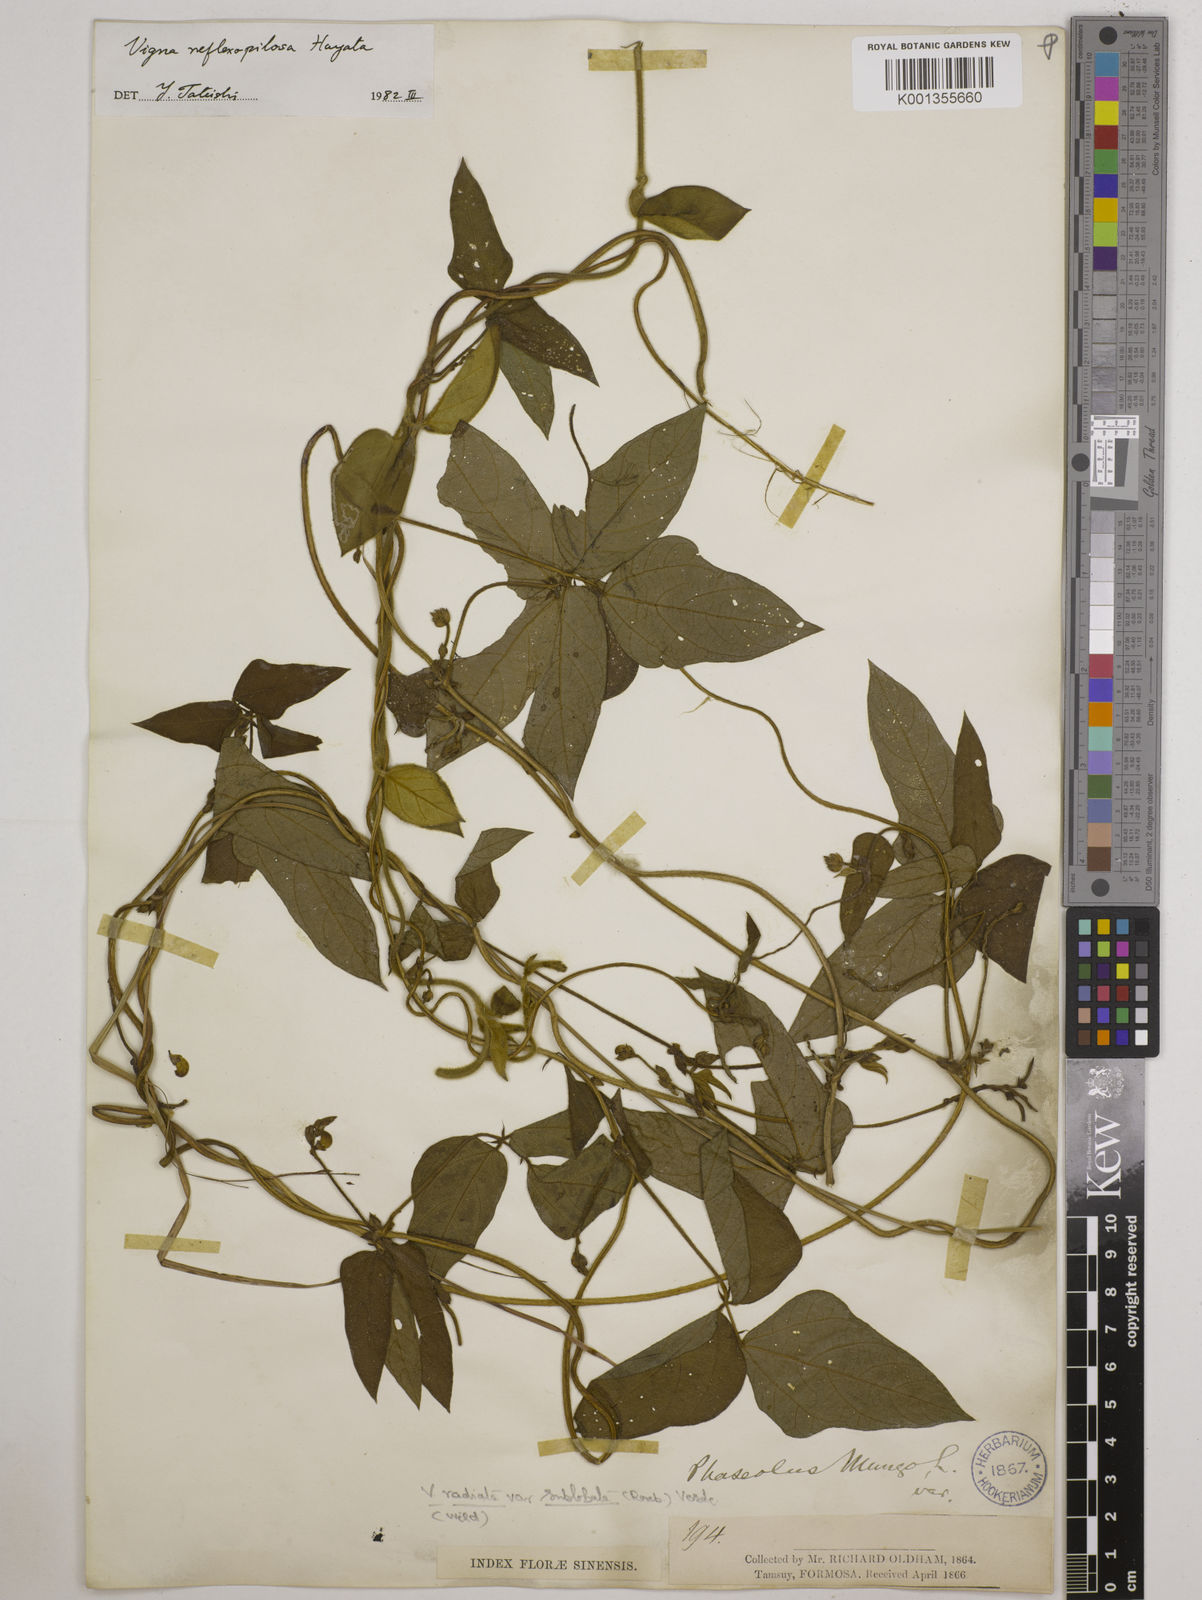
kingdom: Plantae
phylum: Tracheophyta
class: Magnoliopsida
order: Fabales
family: Fabaceae
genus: Vigna
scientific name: Vigna reflexopilosa
